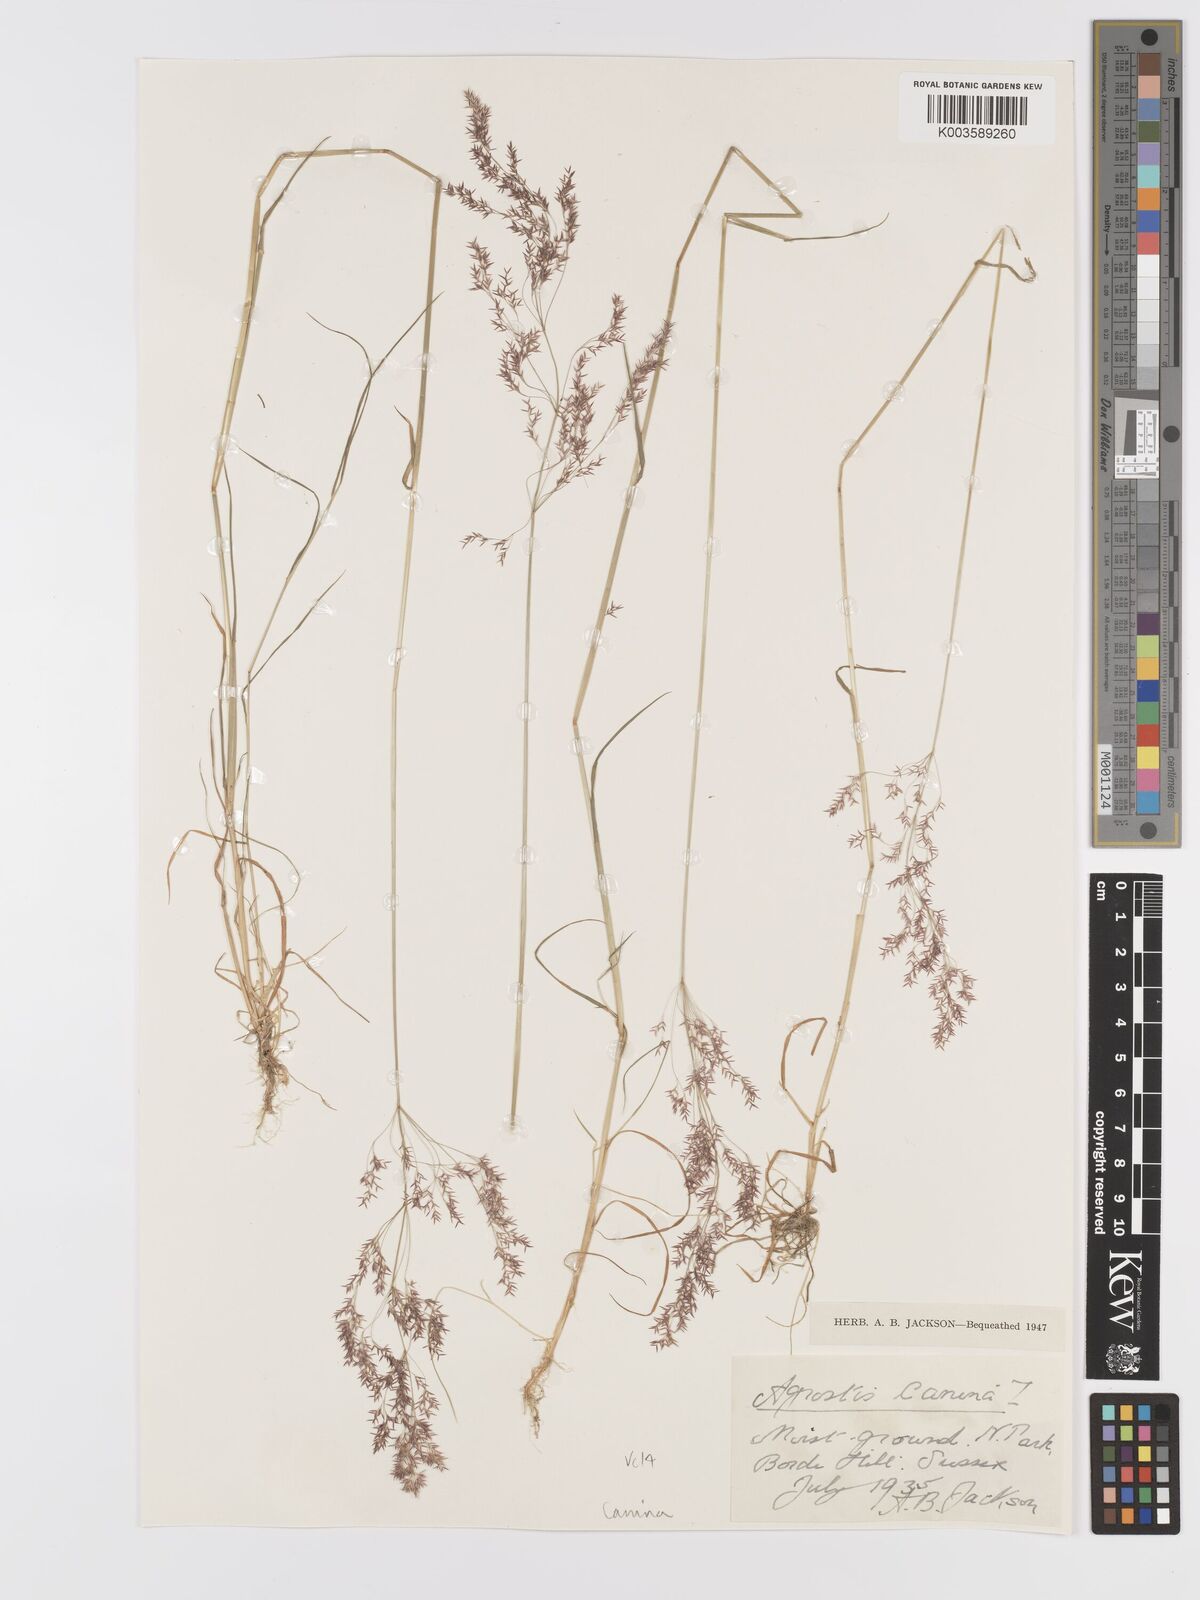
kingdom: Plantae
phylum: Tracheophyta
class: Liliopsida
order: Poales
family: Poaceae
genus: Agrostis
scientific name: Agrostis canina
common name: Velvet bent
